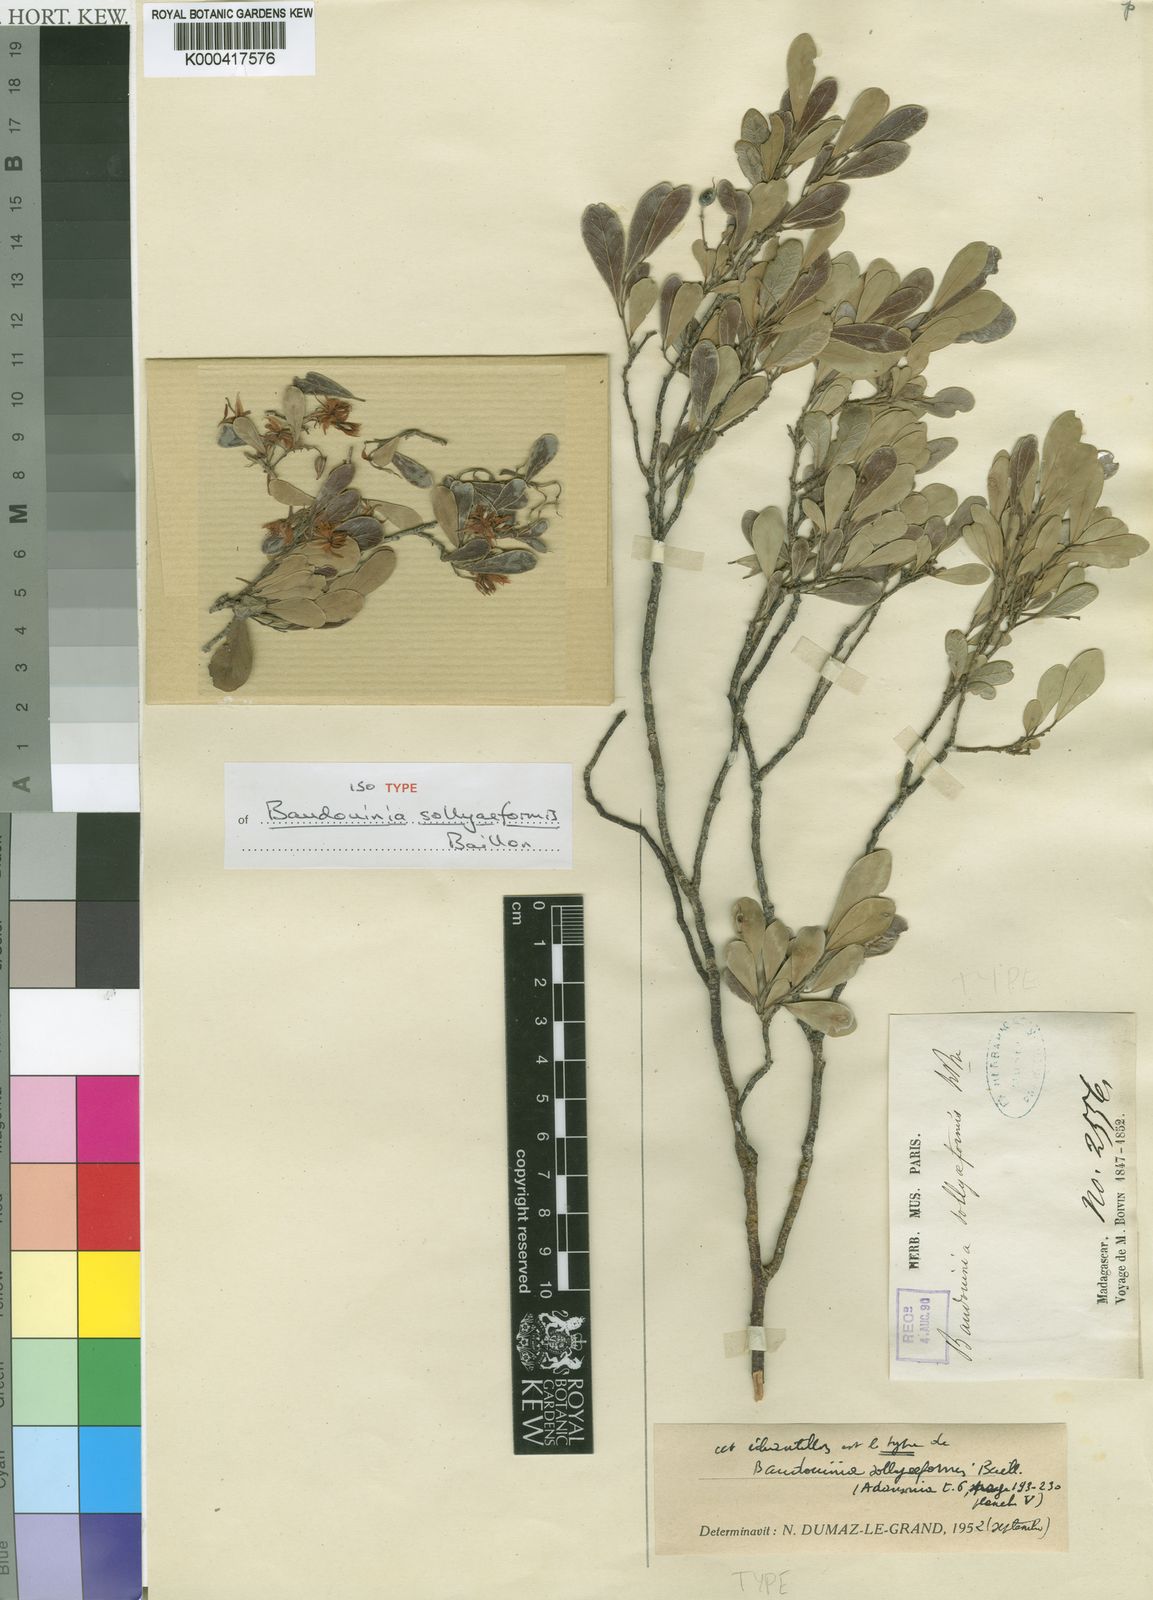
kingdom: Plantae
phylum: Tracheophyta
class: Magnoliopsida
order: Fabales
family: Fabaceae
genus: Baudouinia
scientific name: Baudouinia sollyiformis
